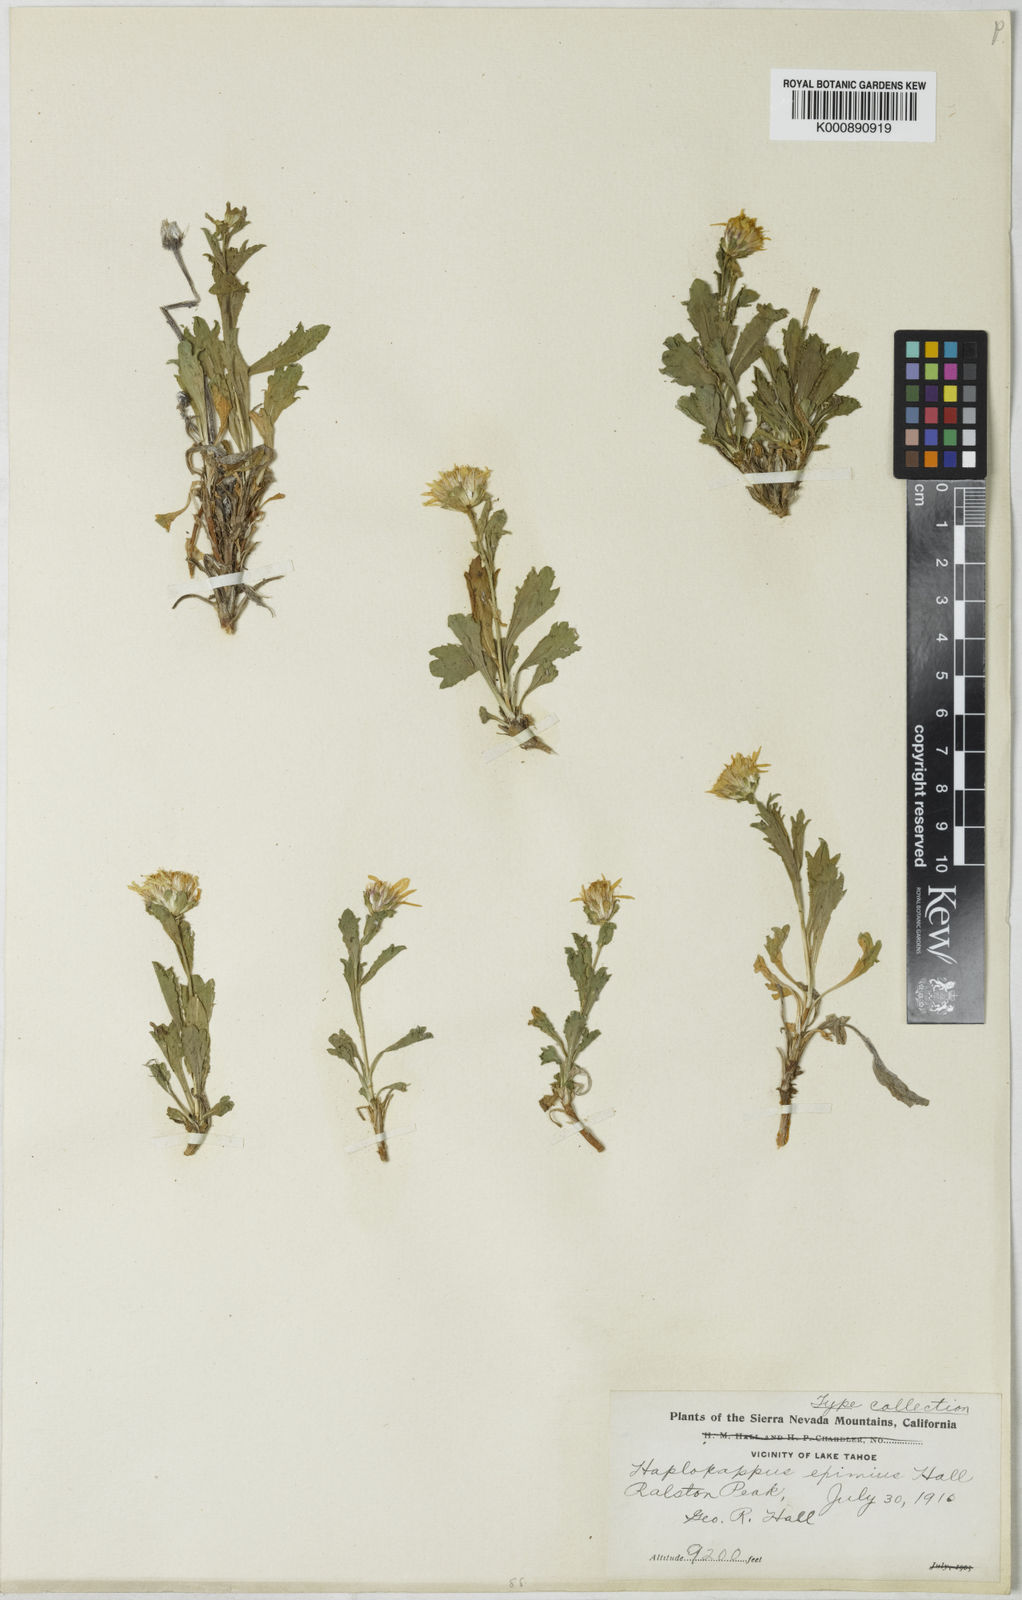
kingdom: Plantae
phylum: Tracheophyta
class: Magnoliopsida
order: Asterales
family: Asteraceae
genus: Toiyabea
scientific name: Toiyabea eximia
